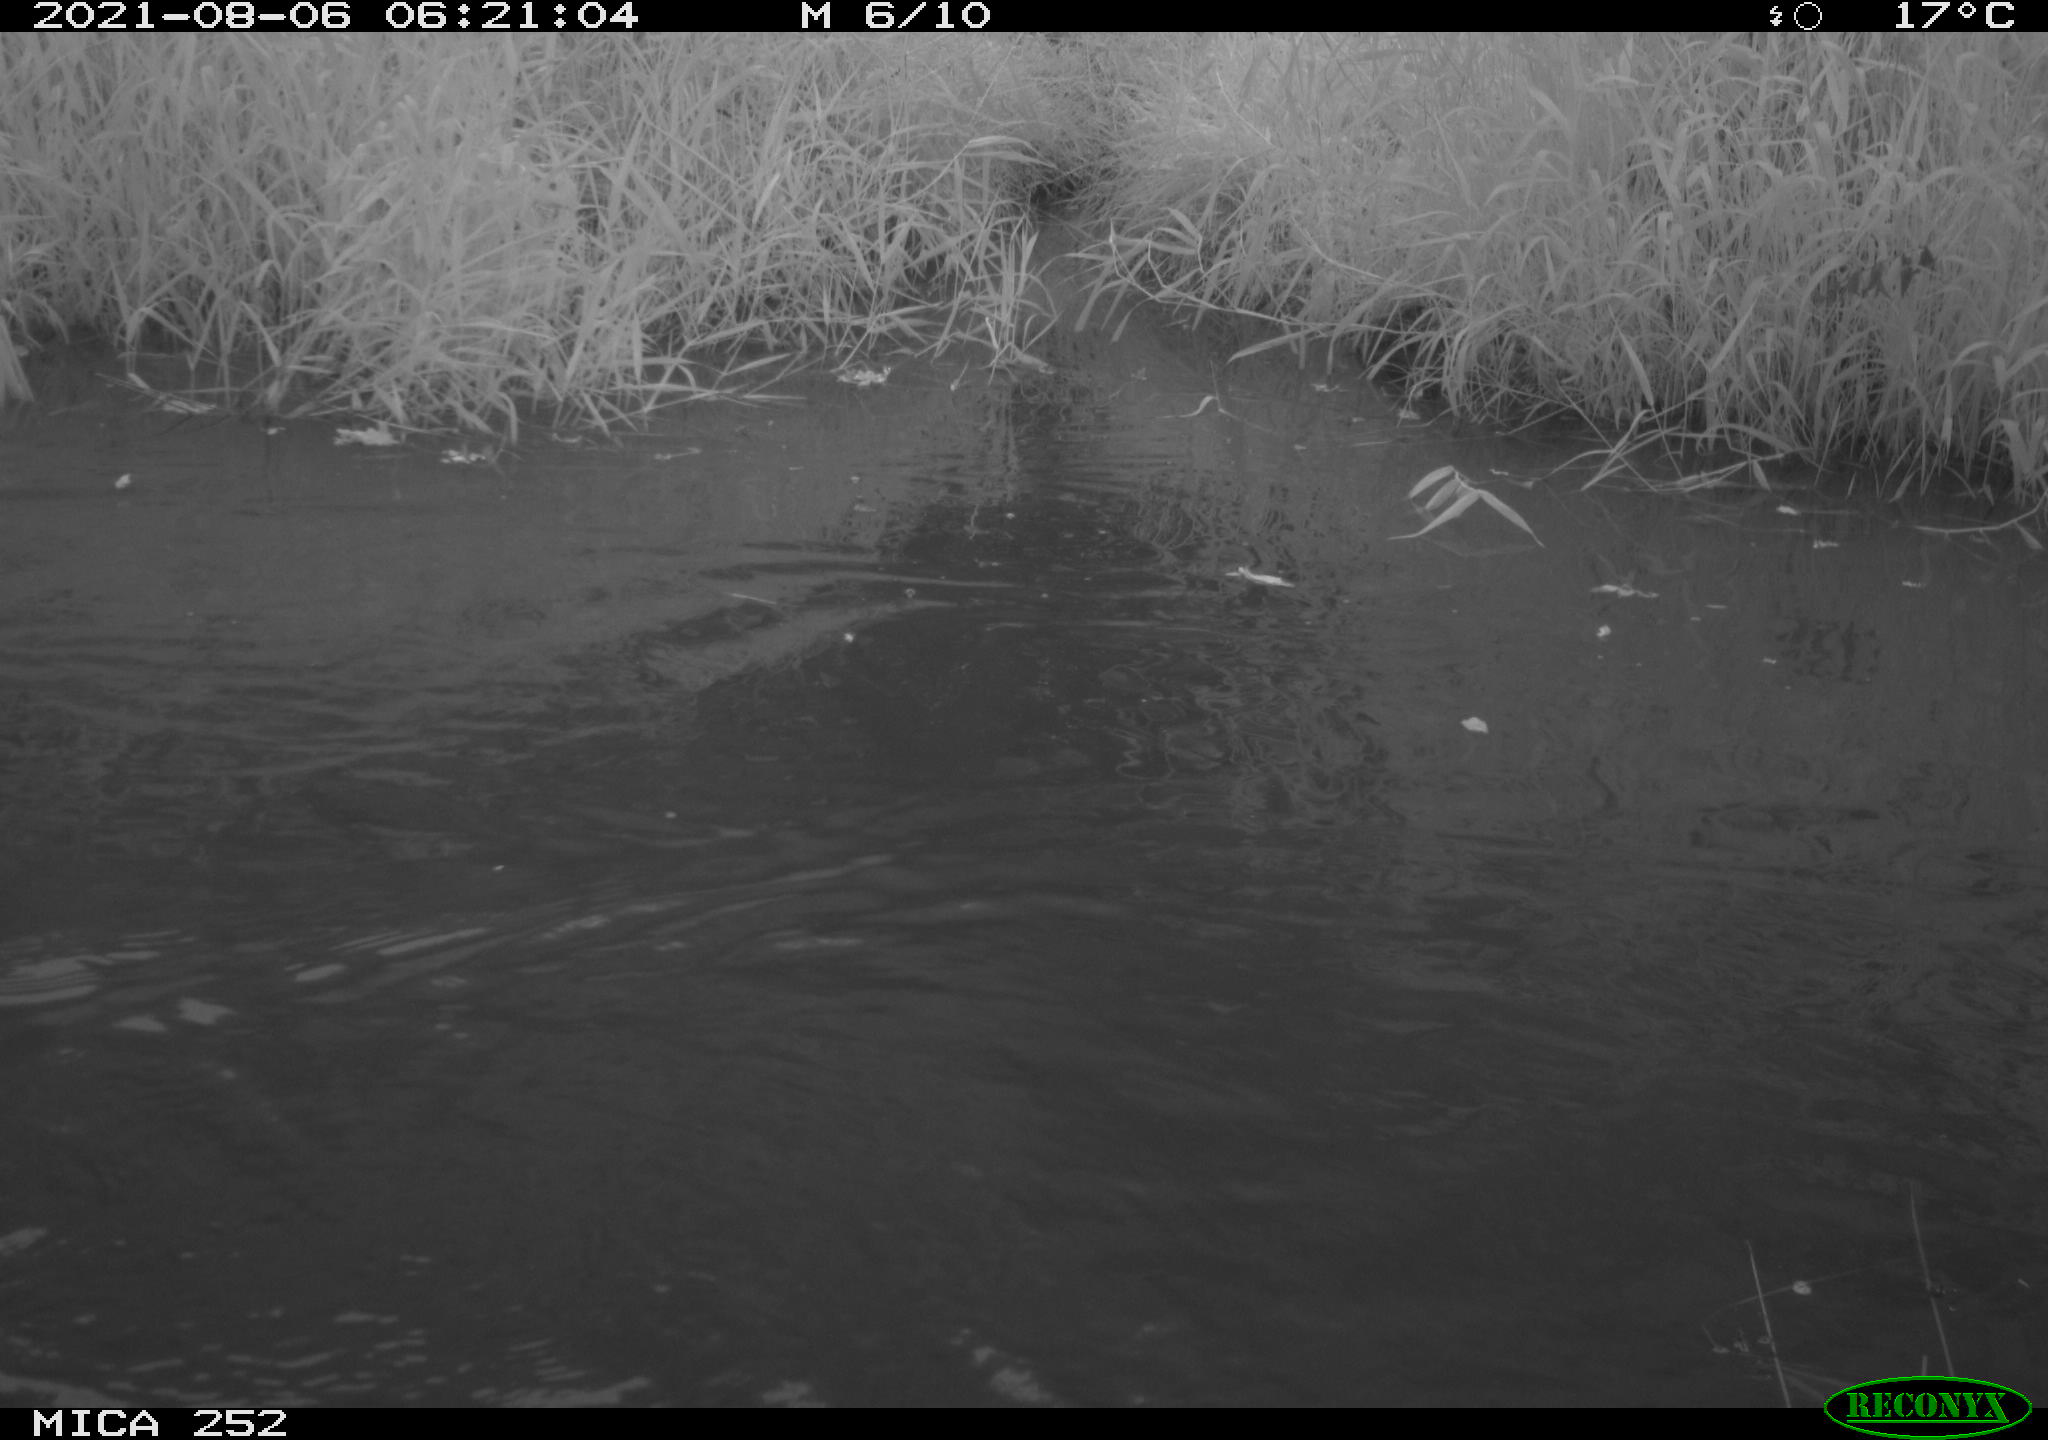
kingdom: Animalia
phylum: Chordata
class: Aves
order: Anseriformes
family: Anatidae
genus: Anas
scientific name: Anas
